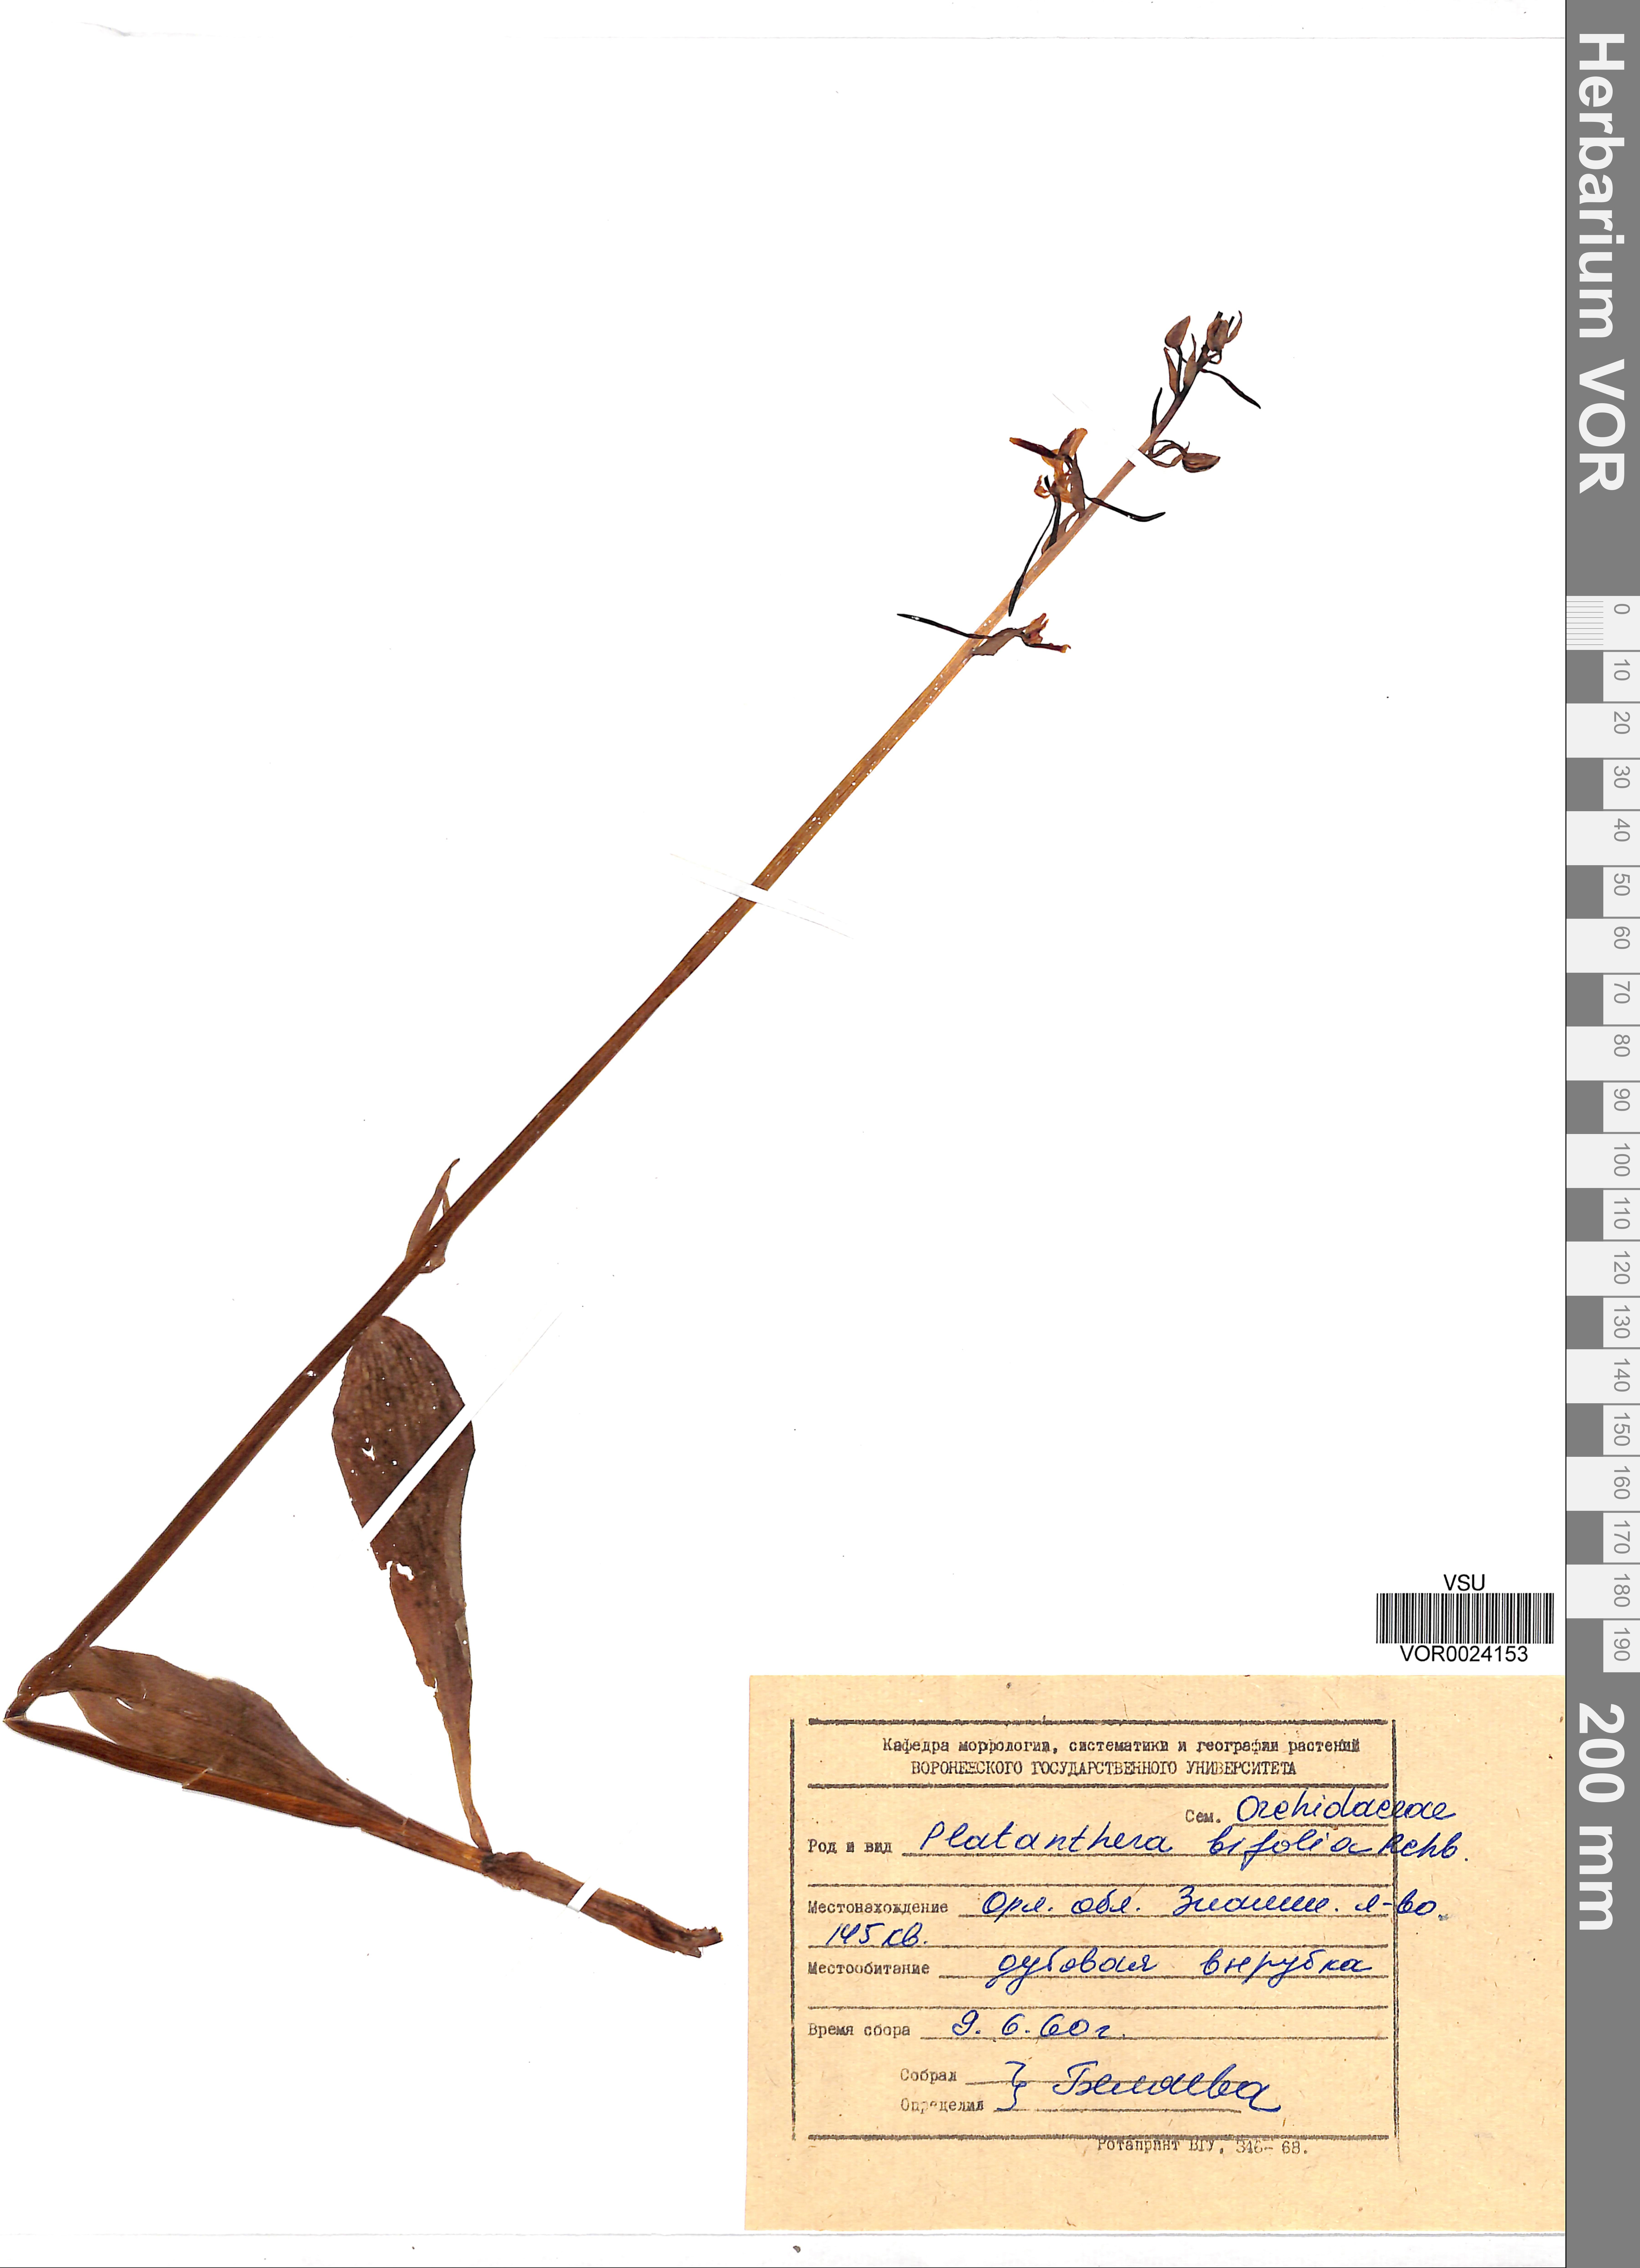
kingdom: Plantae
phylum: Tracheophyta
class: Liliopsida
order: Asparagales
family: Orchidaceae
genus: Platanthera
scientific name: Platanthera bifolia
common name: Lesser butterfly-orchid
